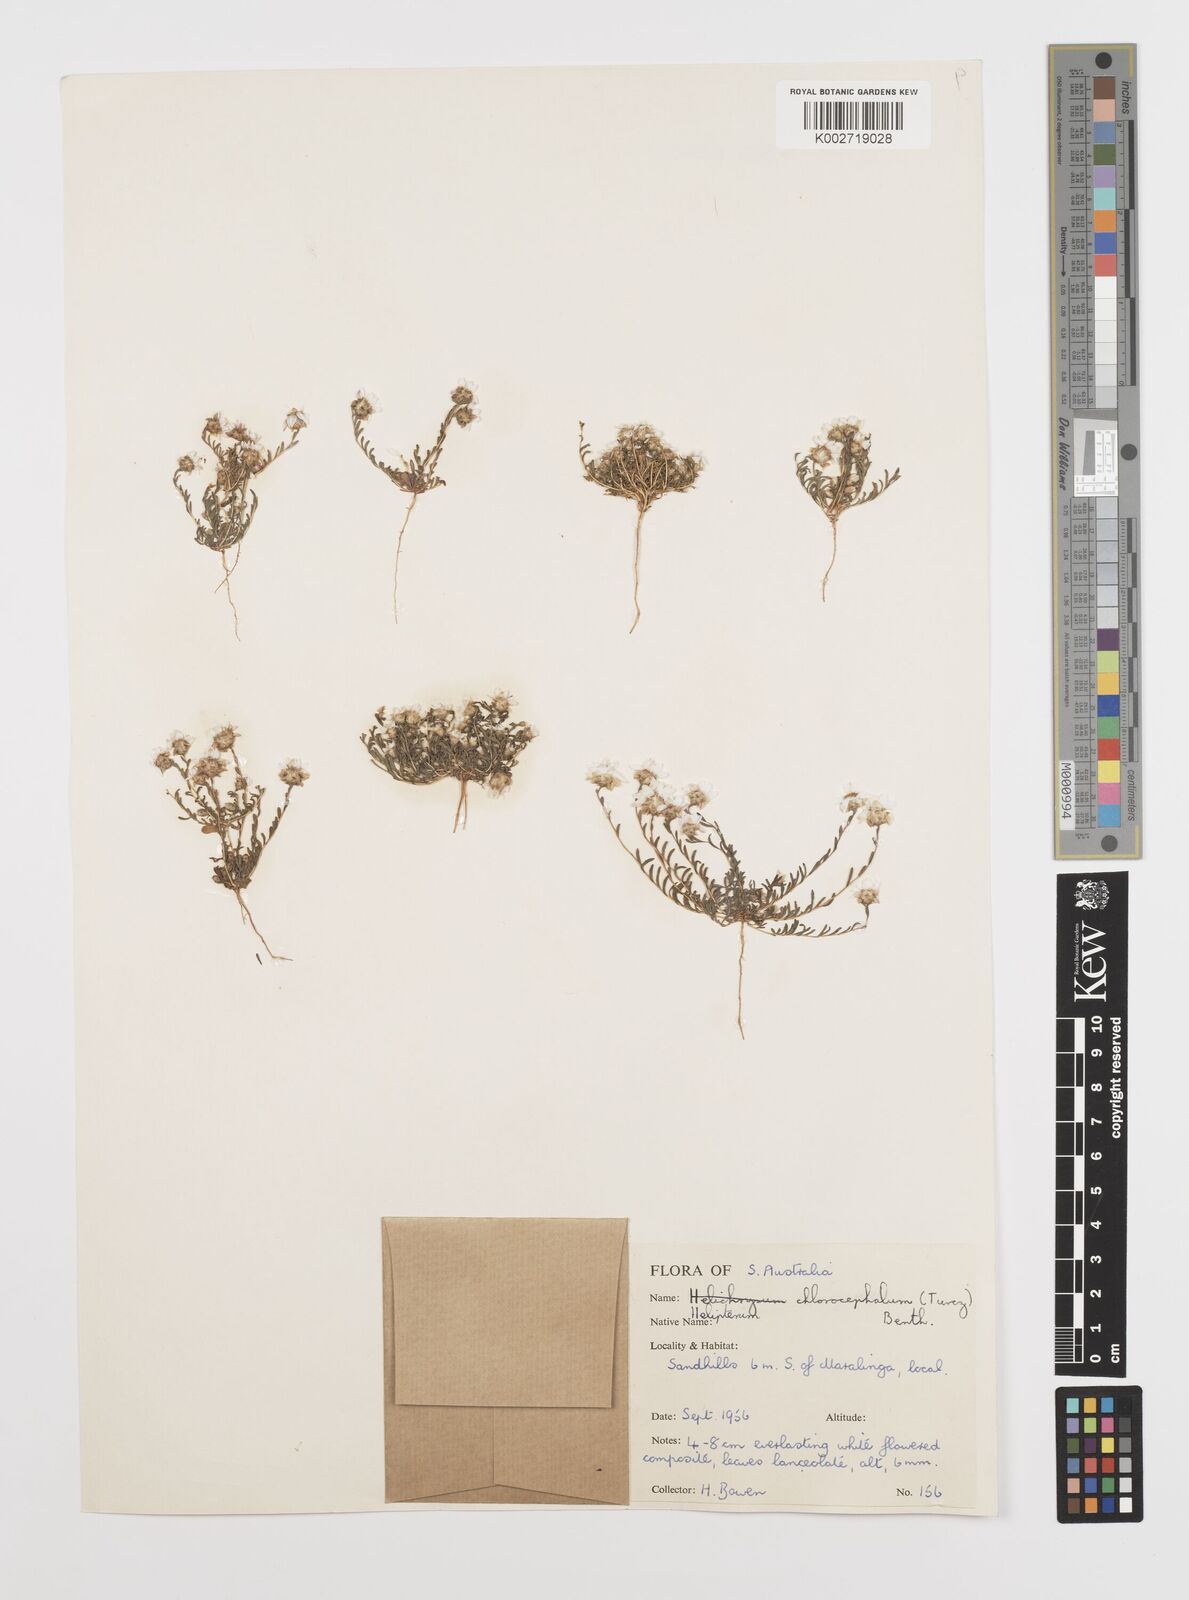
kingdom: Plantae
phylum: Tracheophyta
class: Magnoliopsida
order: Asterales
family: Asteraceae
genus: Rhodanthe
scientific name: Rhodanthe chlorocephala
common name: Rosy sunray
